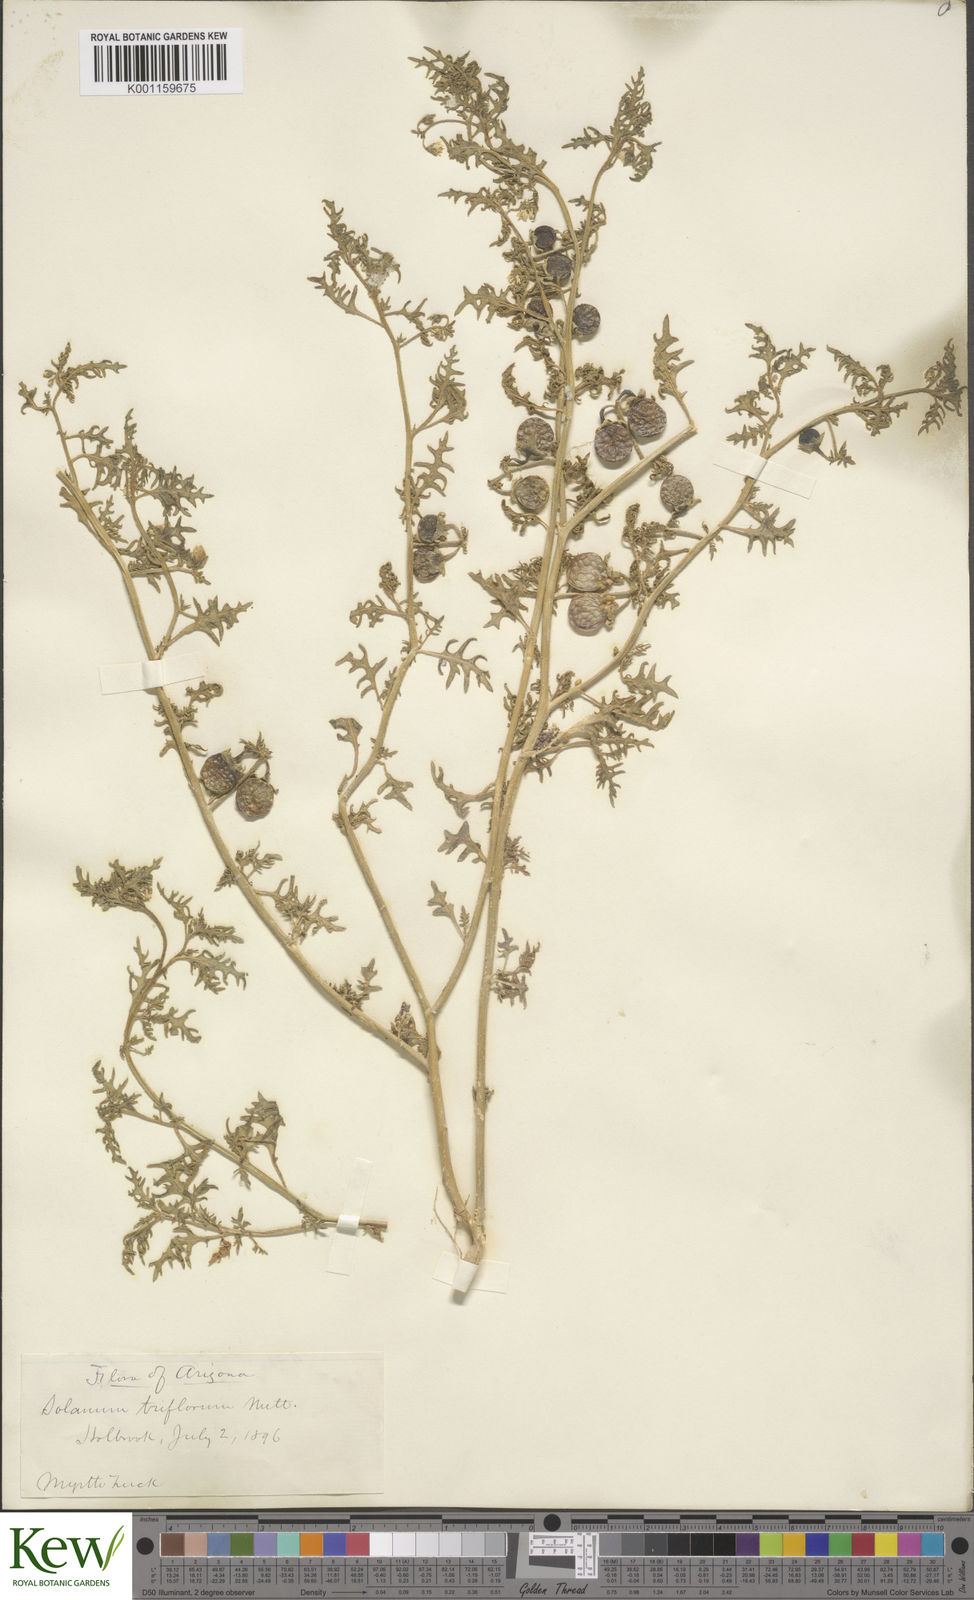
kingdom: Plantae
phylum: Tracheophyta
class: Magnoliopsida
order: Solanales
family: Solanaceae
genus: Solanum
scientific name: Solanum triflorum
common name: Small nightshade
